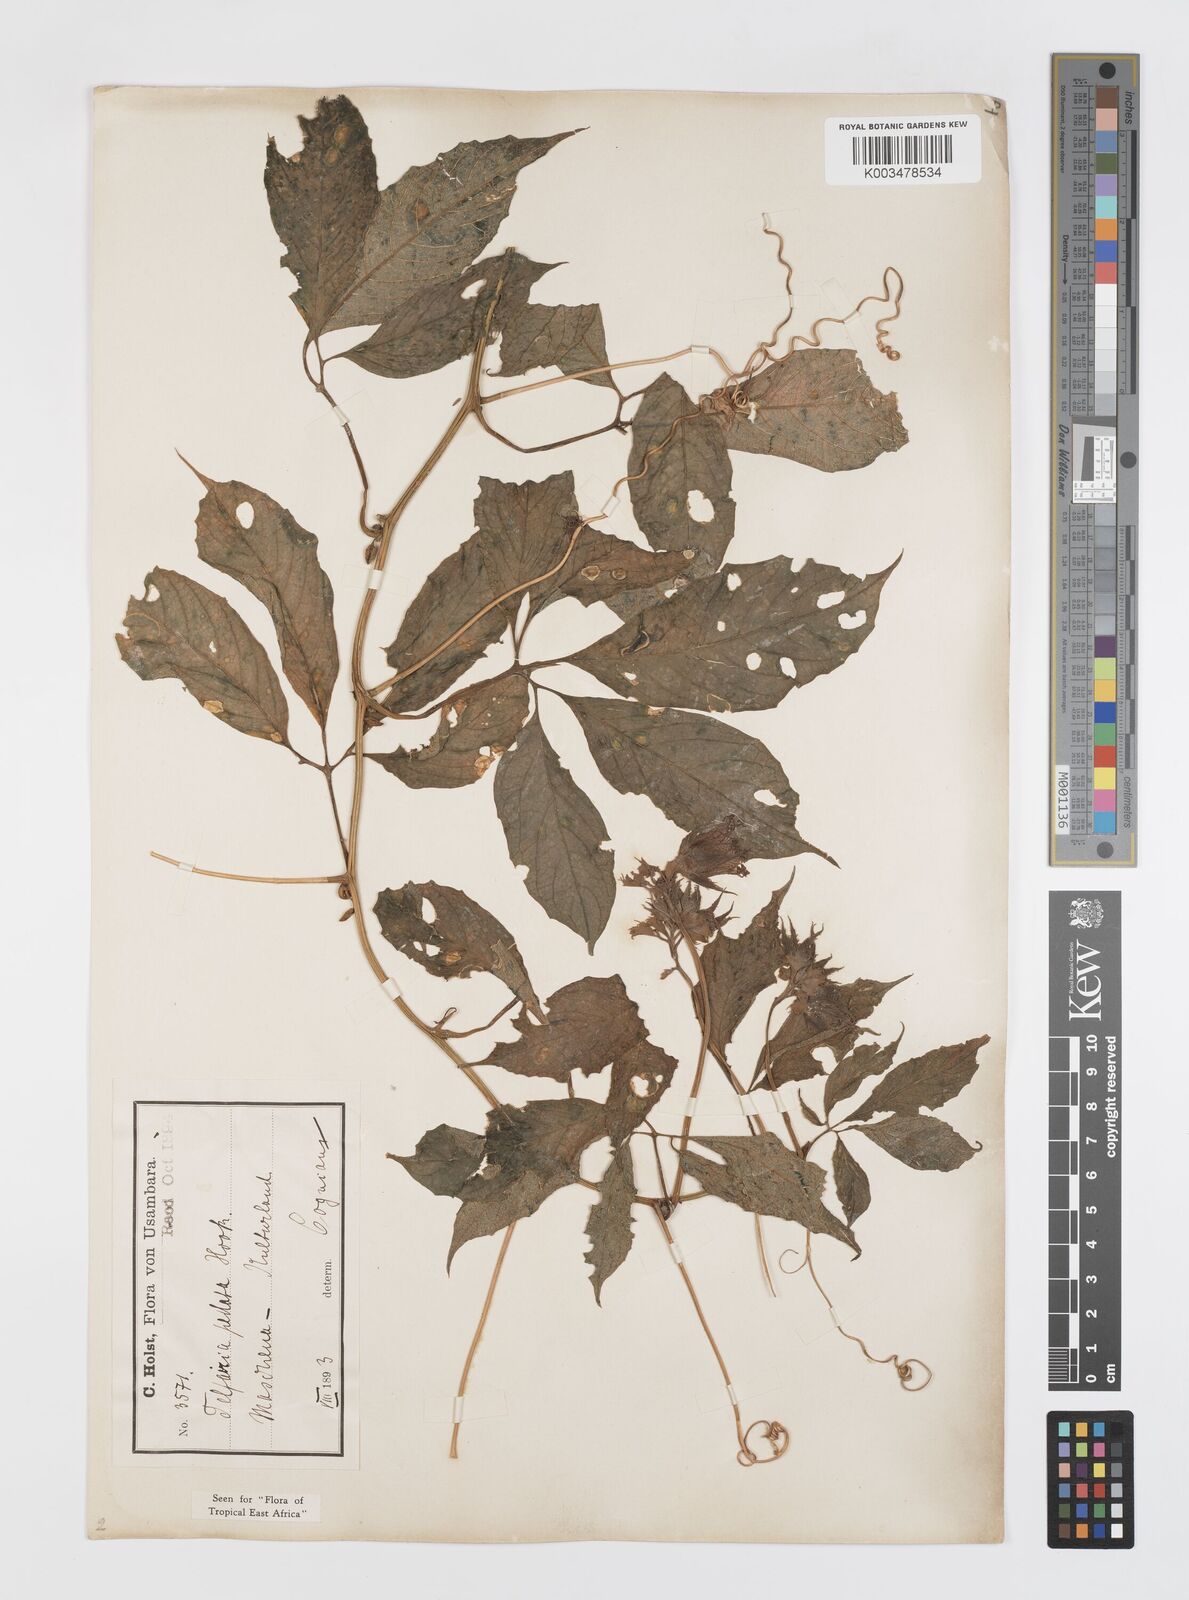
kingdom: Plantae
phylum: Tracheophyta
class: Magnoliopsida
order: Cucurbitales
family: Cucurbitaceae
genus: Telfairia
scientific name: Telfairia pedata
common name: Zanzibar oilvine
